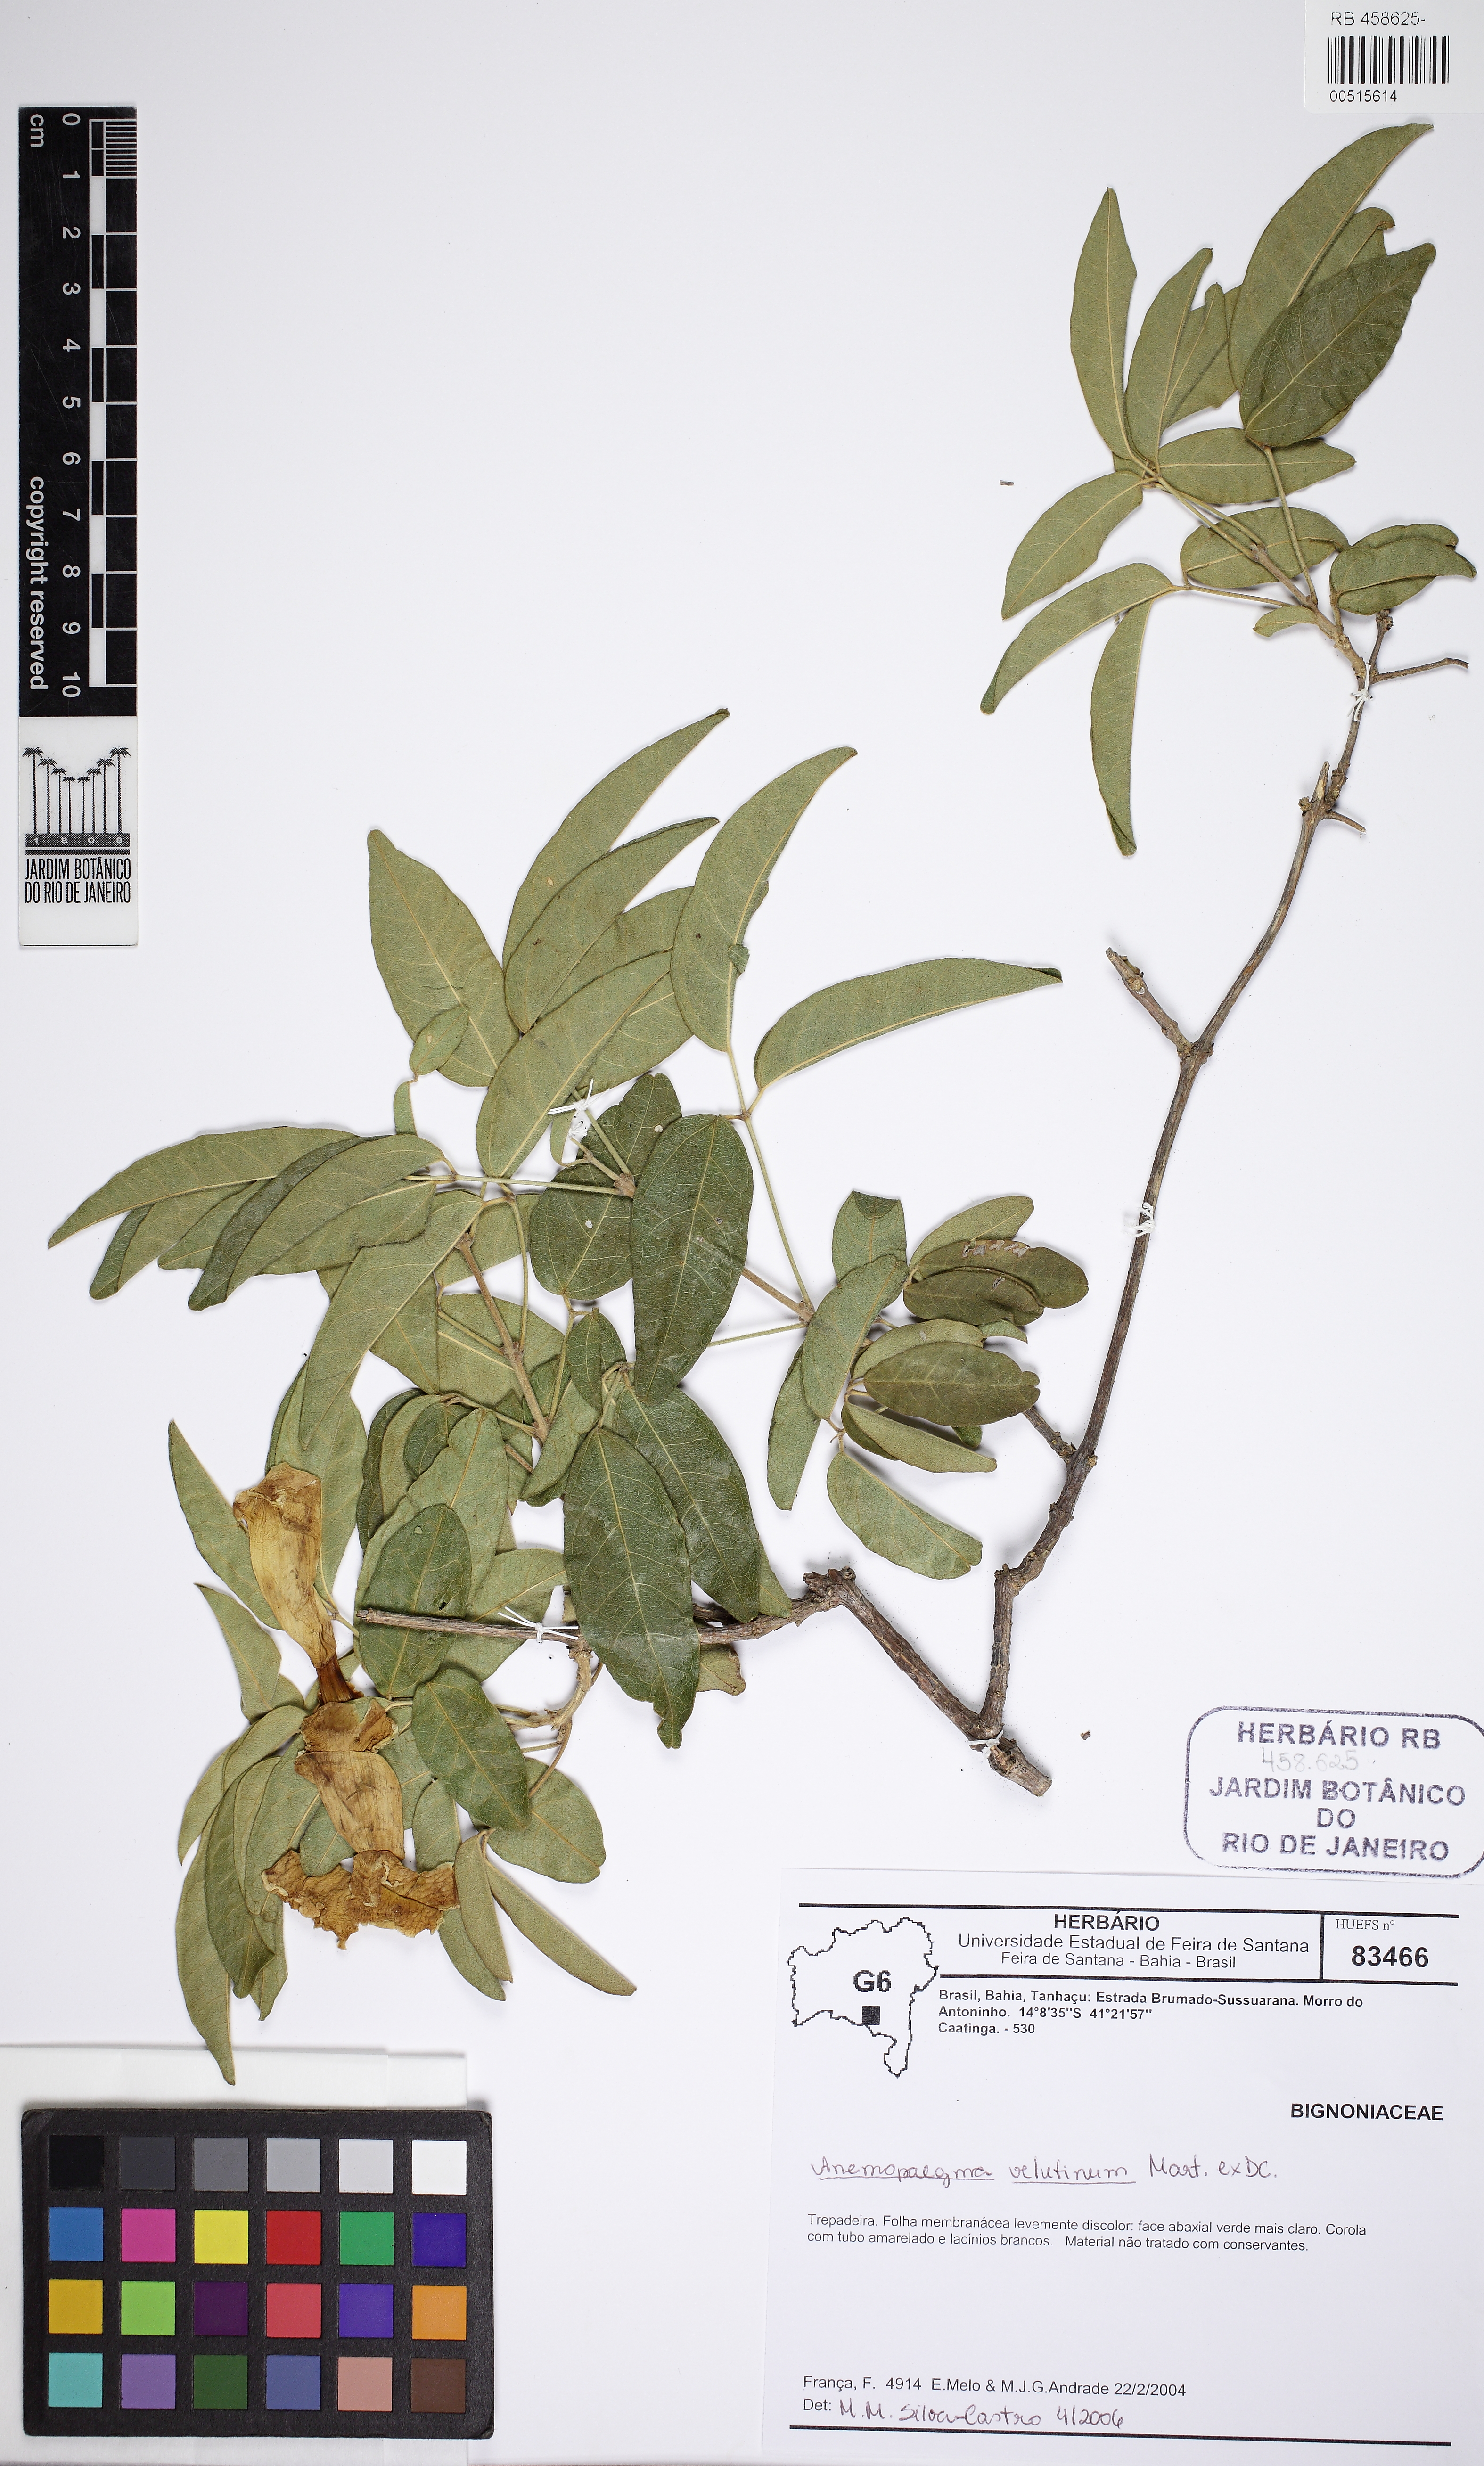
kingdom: Plantae
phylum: Tracheophyta
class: Magnoliopsida
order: Lamiales
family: Bignoniaceae
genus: Anemopaegma
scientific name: Anemopaegma velutinum
